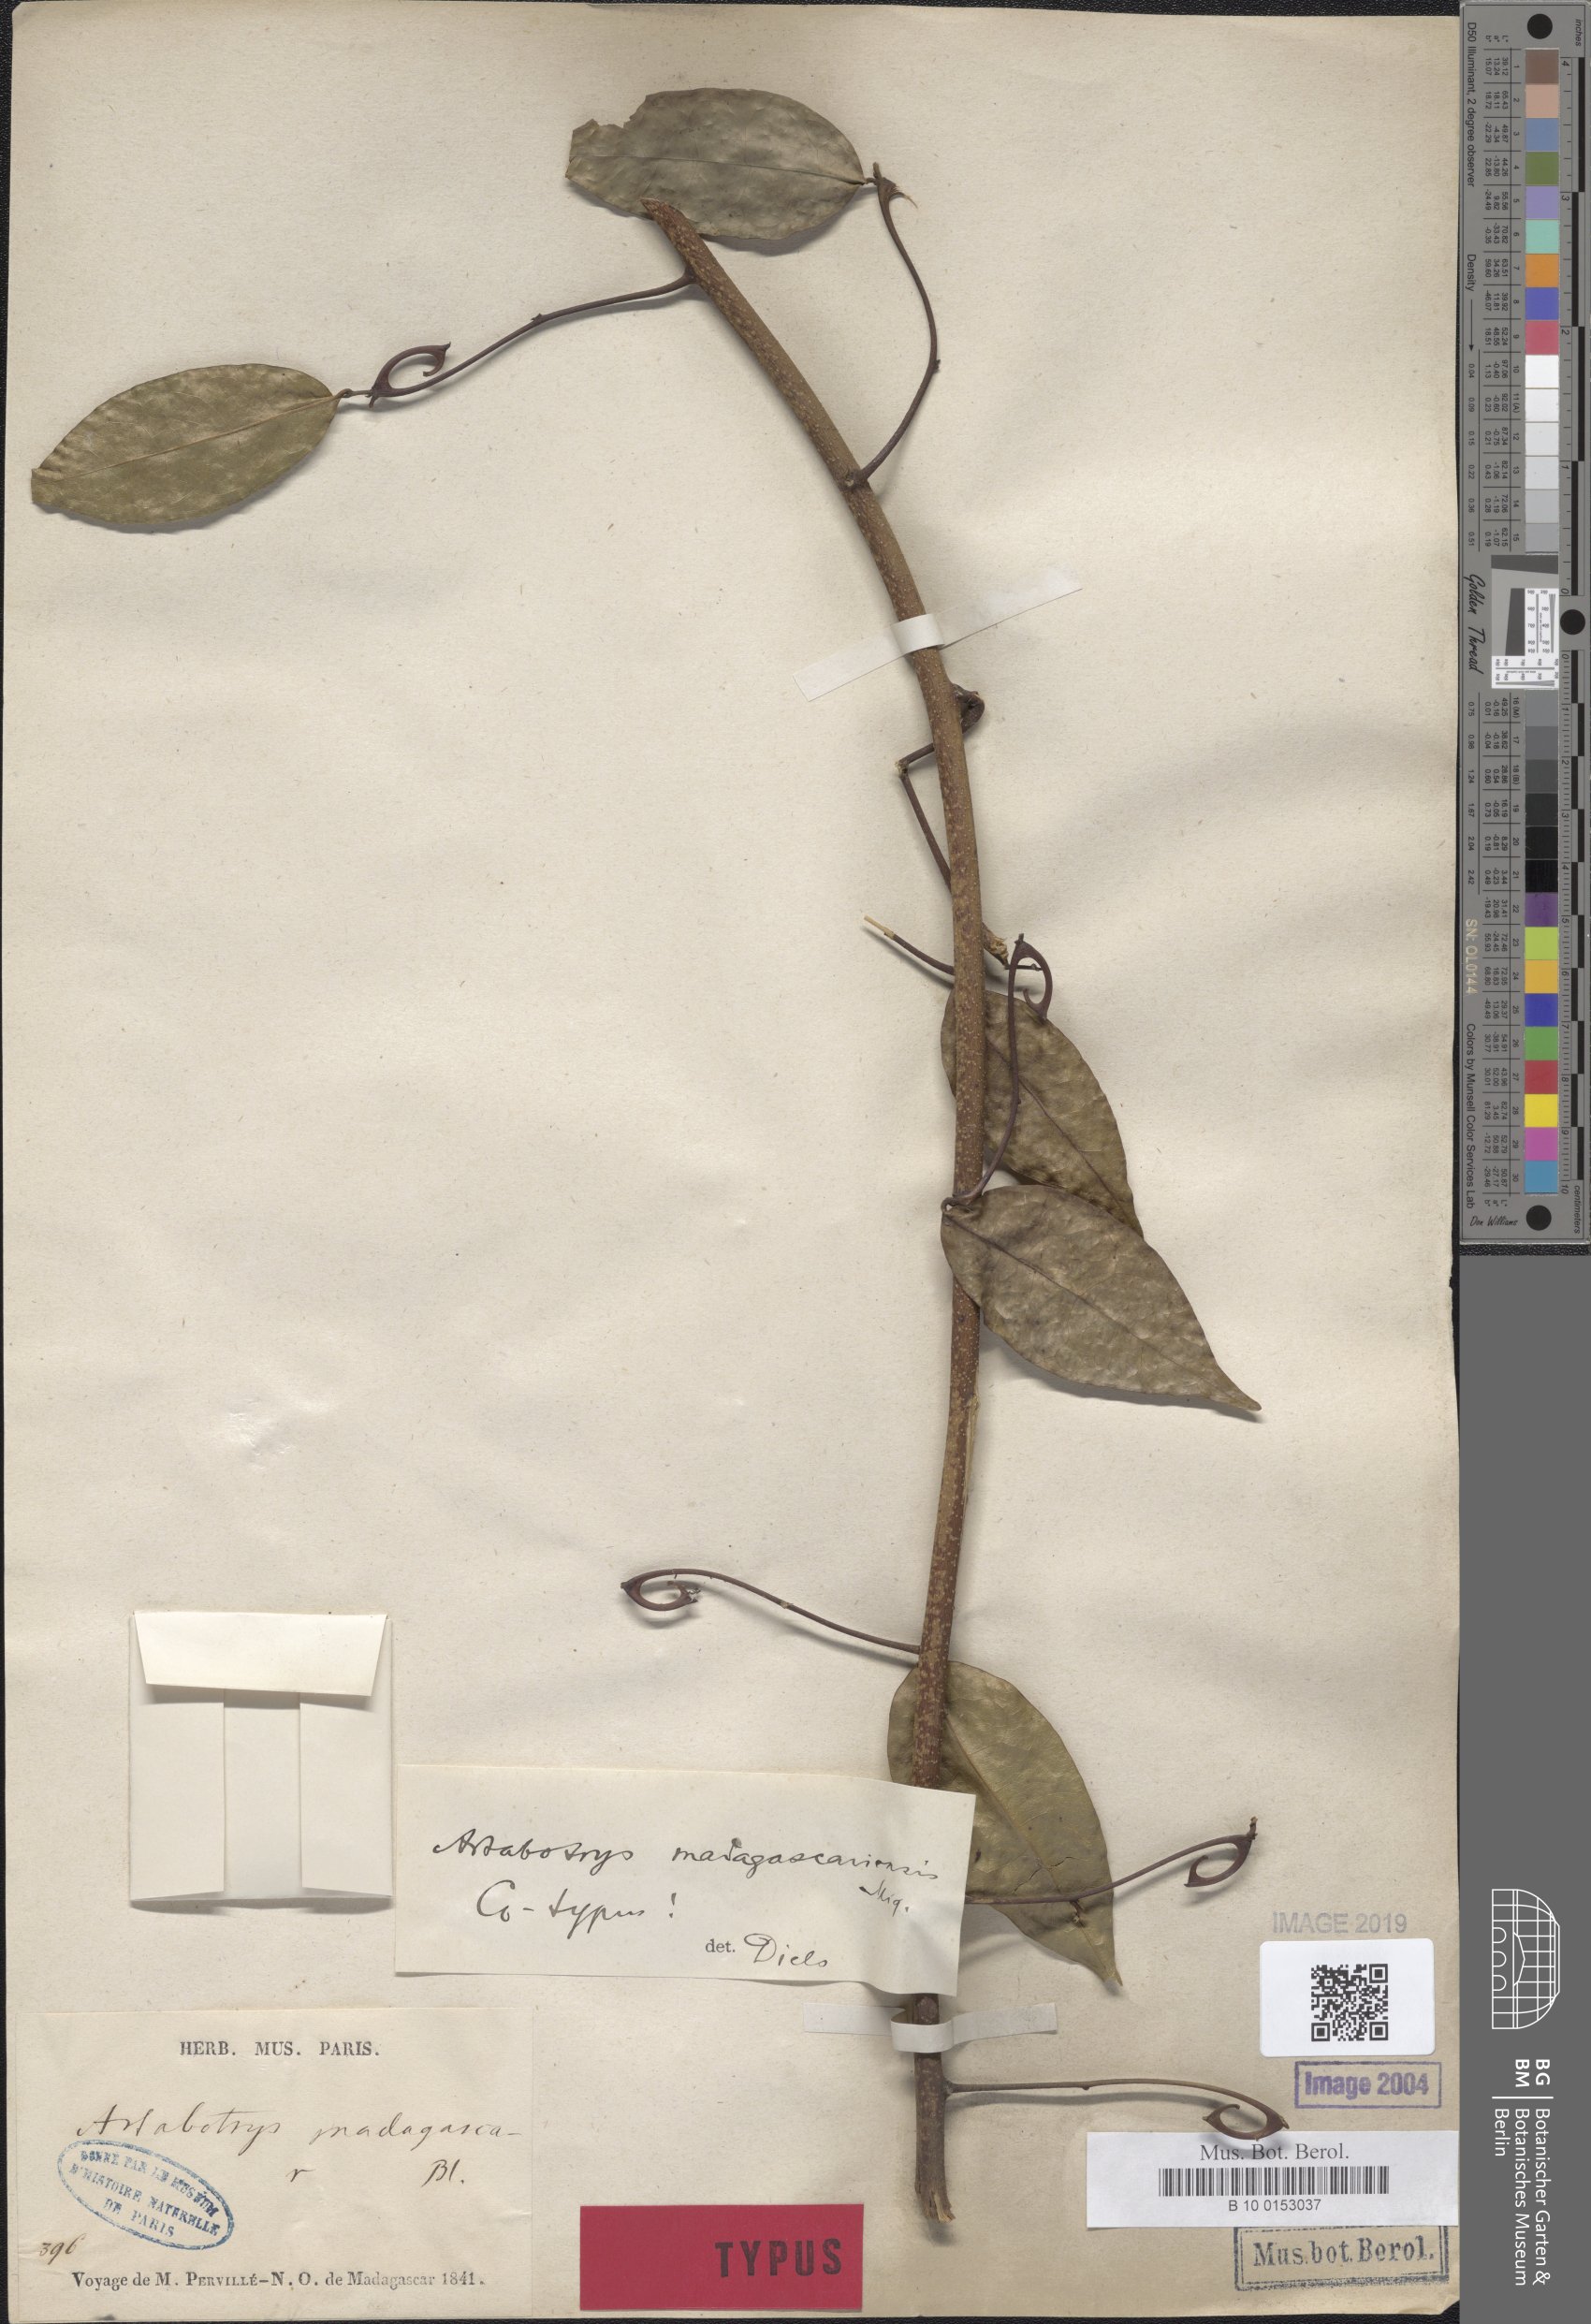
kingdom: Plantae
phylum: Tracheophyta
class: Magnoliopsida
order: Magnoliales
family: Annonaceae
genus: Artabotrys
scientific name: Artabotrys madagascariensis
